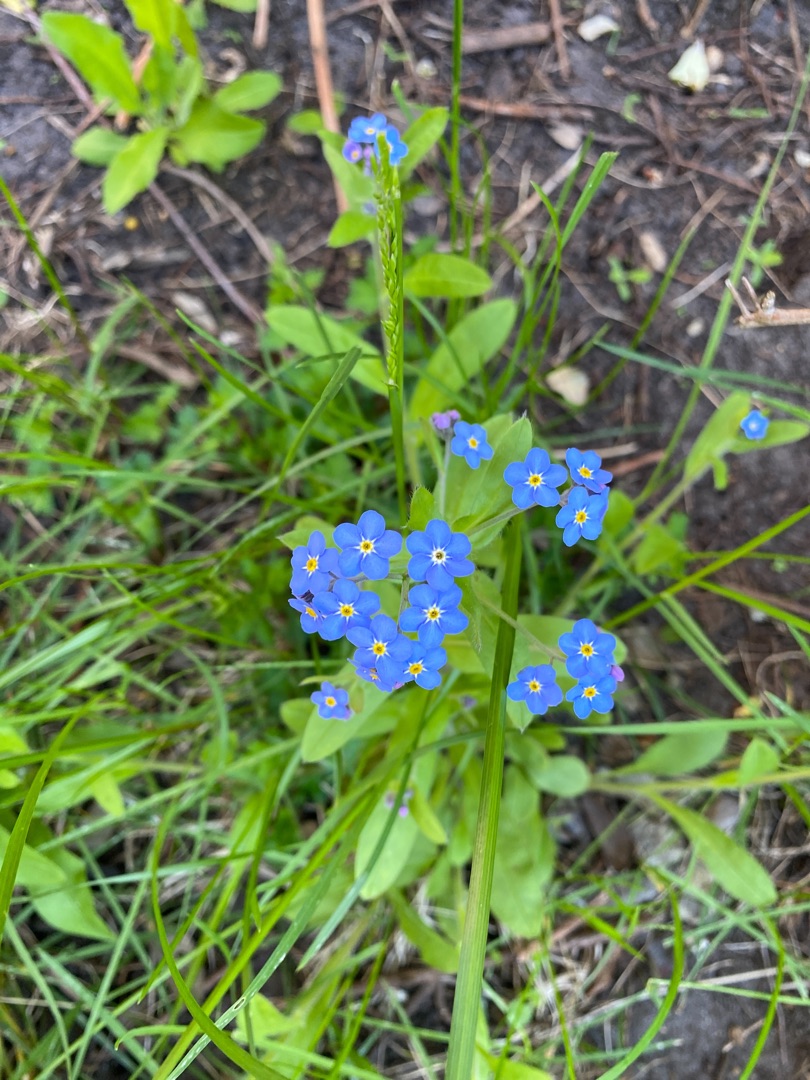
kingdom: Plantae
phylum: Tracheophyta
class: Magnoliopsida
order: Boraginales
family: Boraginaceae
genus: Myosotis
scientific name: Myosotis sylvatica
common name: Skov-forglemmigej
